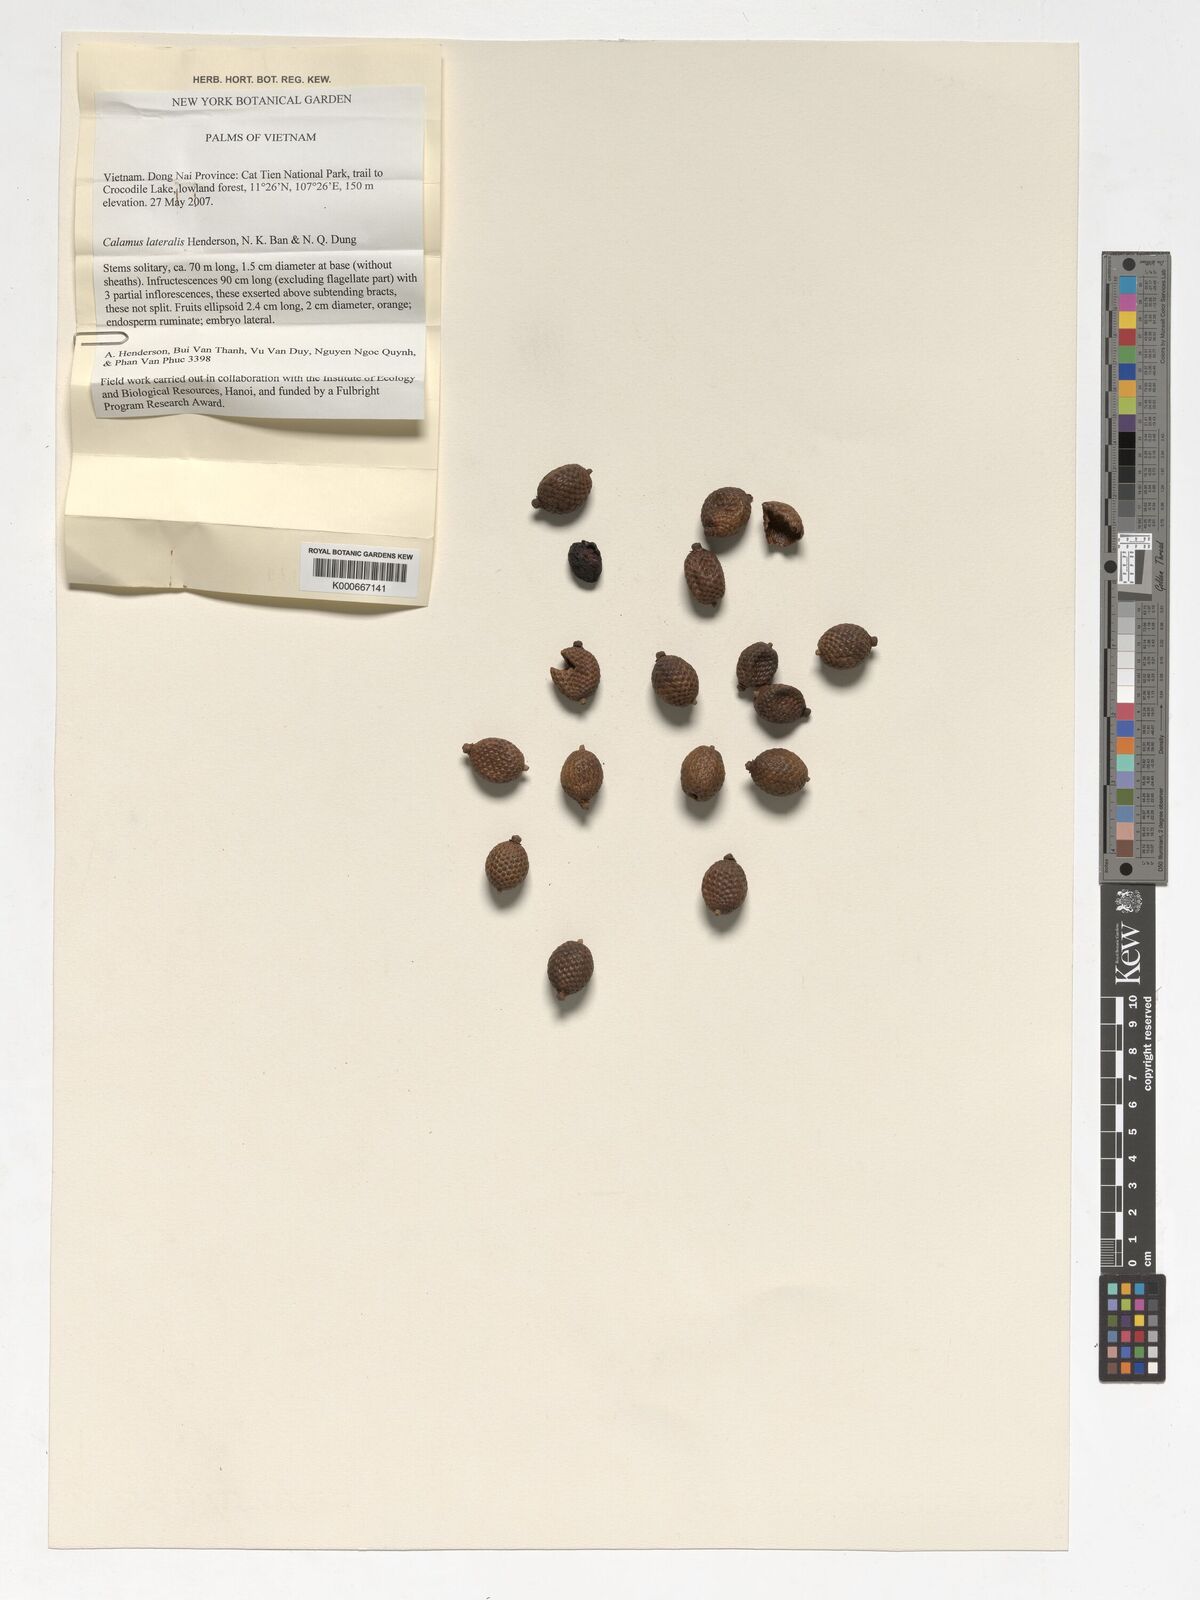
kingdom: Plantae
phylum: Tracheophyta
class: Liliopsida
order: Arecales
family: Arecaceae
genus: Calamus
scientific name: Calamus lateralis
